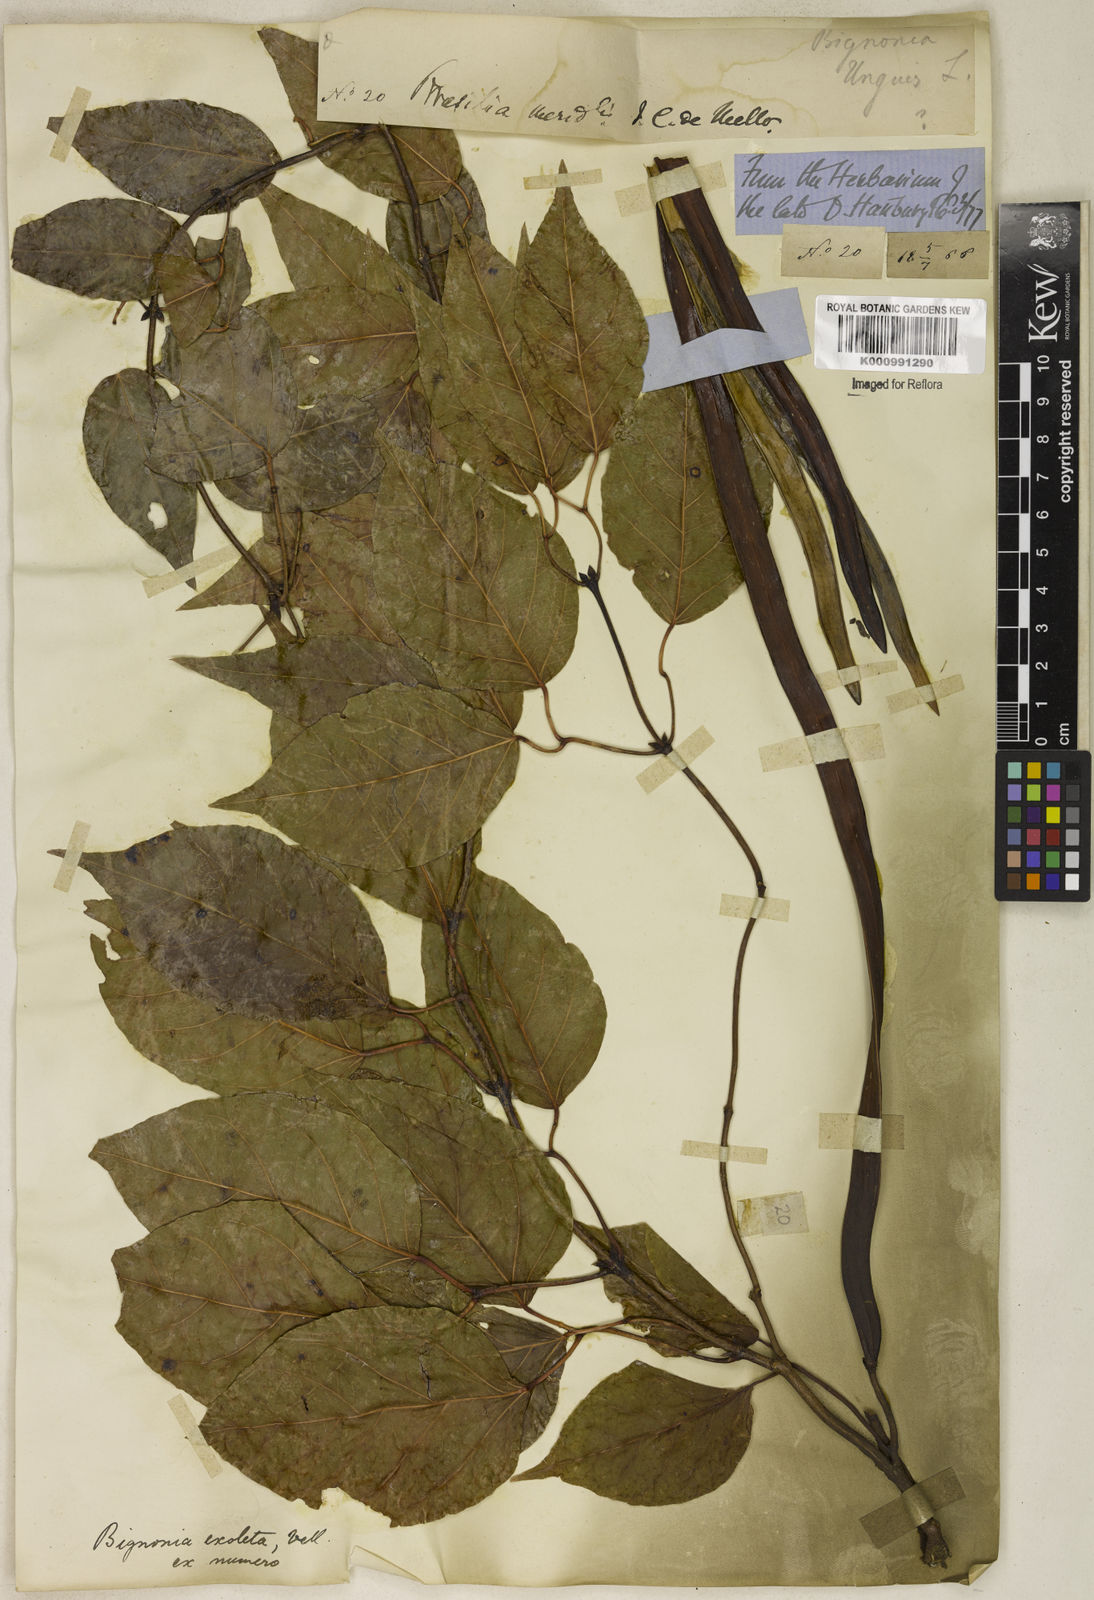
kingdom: Plantae
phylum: Tracheophyta
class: Magnoliopsida
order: Lamiales
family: Bignoniaceae
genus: Dolichandra
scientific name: Dolichandra unguis-cati
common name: Catclaw vine
